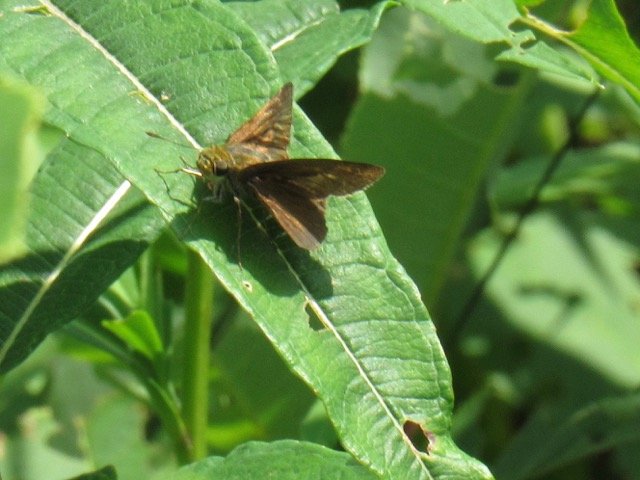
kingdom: Animalia
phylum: Arthropoda
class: Insecta
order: Lepidoptera
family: Hesperiidae
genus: Polites
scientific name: Polites egeremet
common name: Northern Broken-Dash
